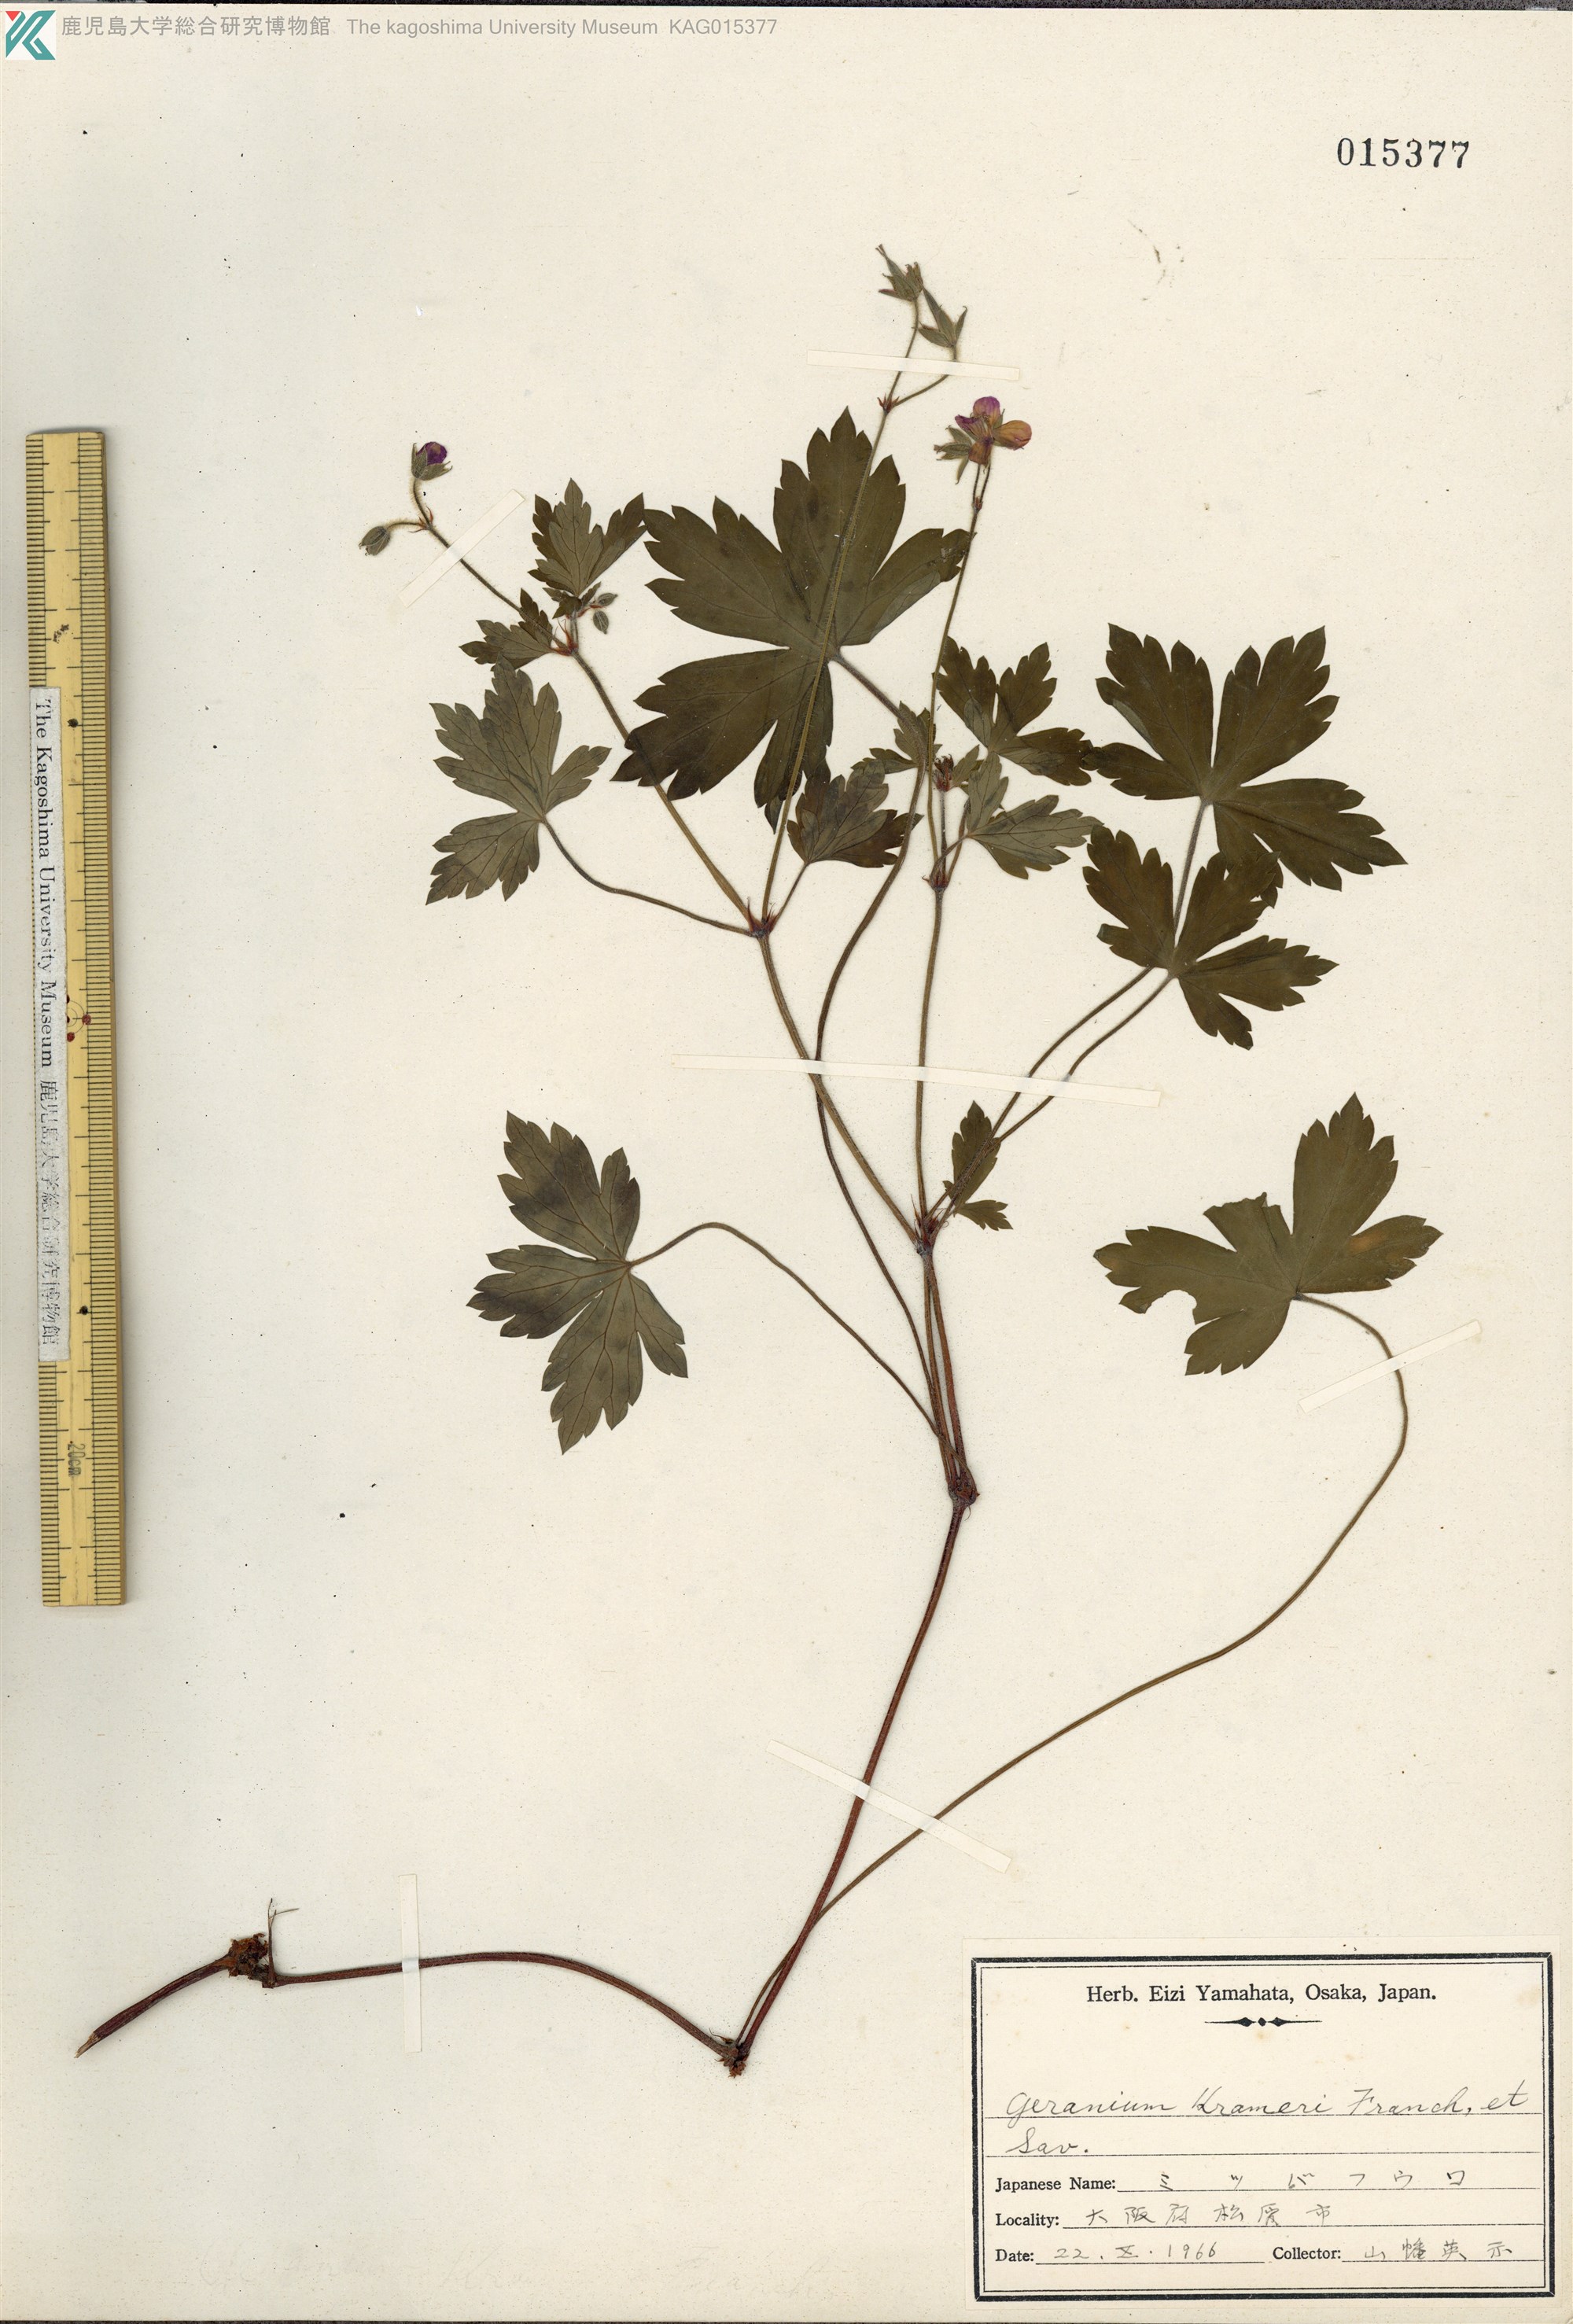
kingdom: Plantae
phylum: Tracheophyta
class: Magnoliopsida
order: Geraniales
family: Geraniaceae
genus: Geranium
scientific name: Geranium krameri
